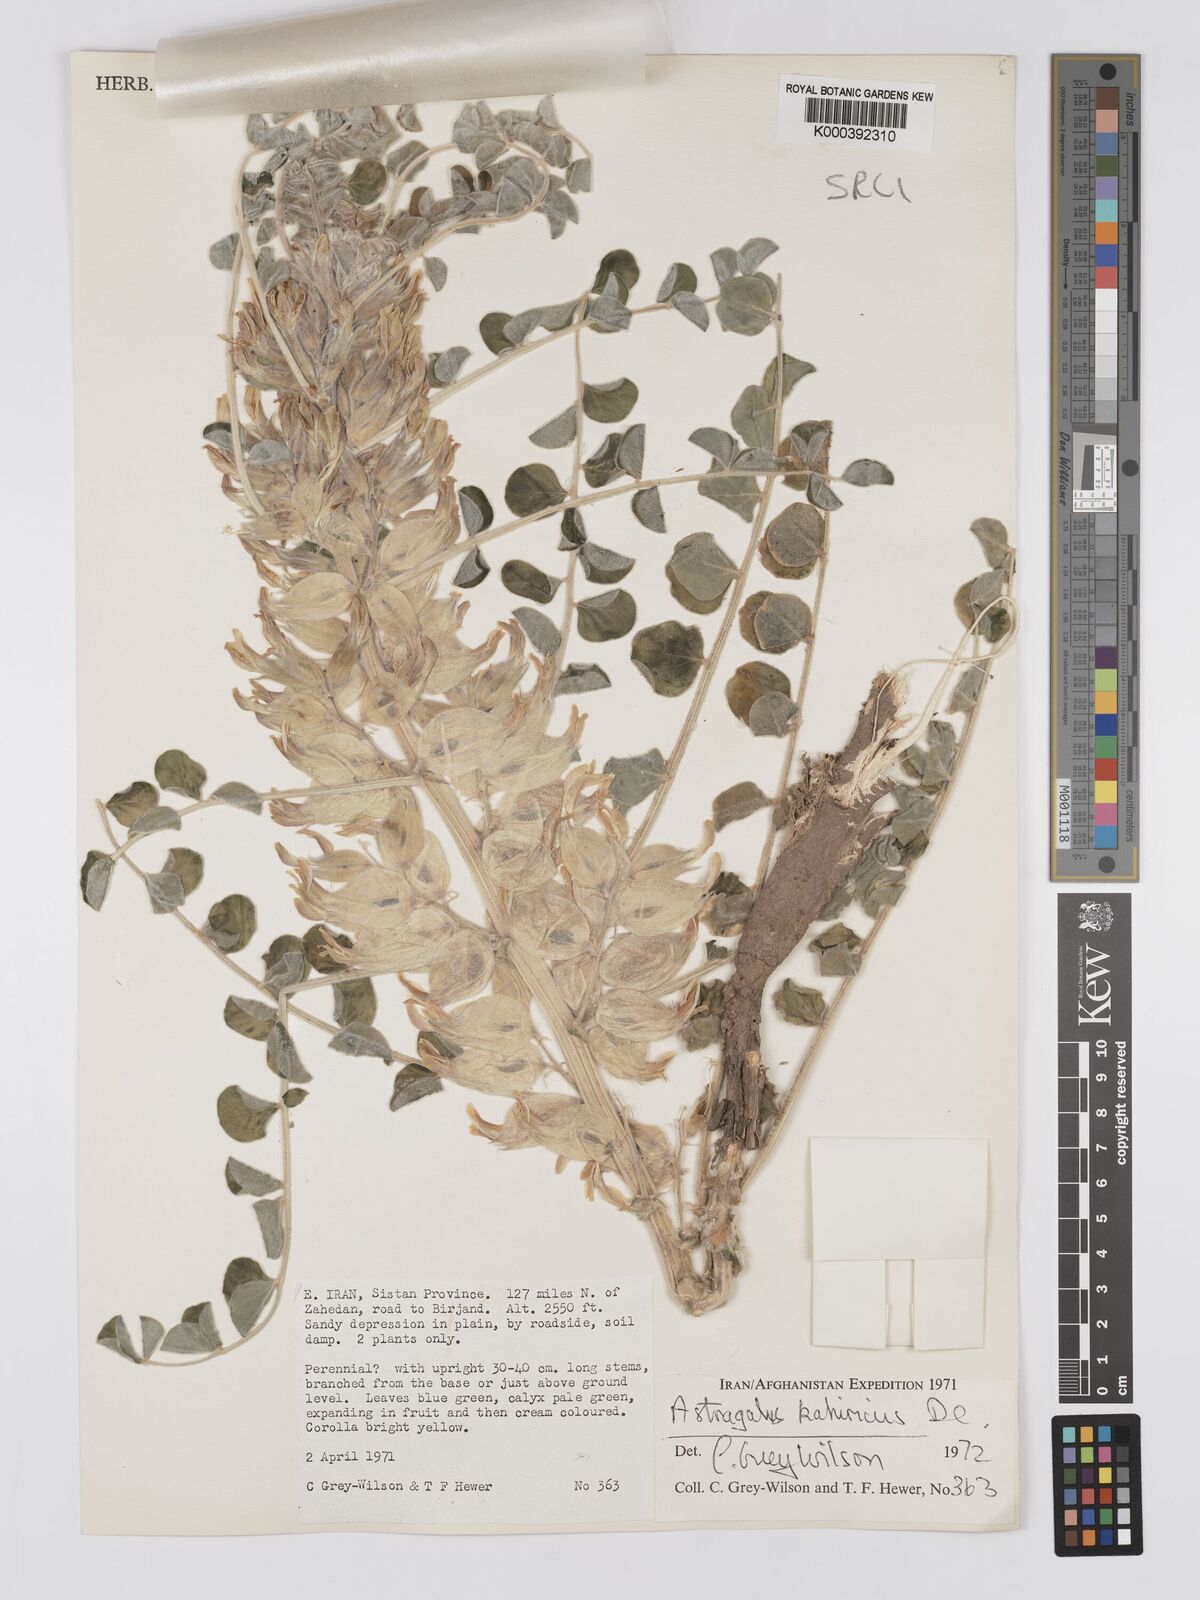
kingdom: Plantae
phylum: Tracheophyta
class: Magnoliopsida
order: Fabales
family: Fabaceae
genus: Astragalus
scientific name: Astragalus kahiricus
